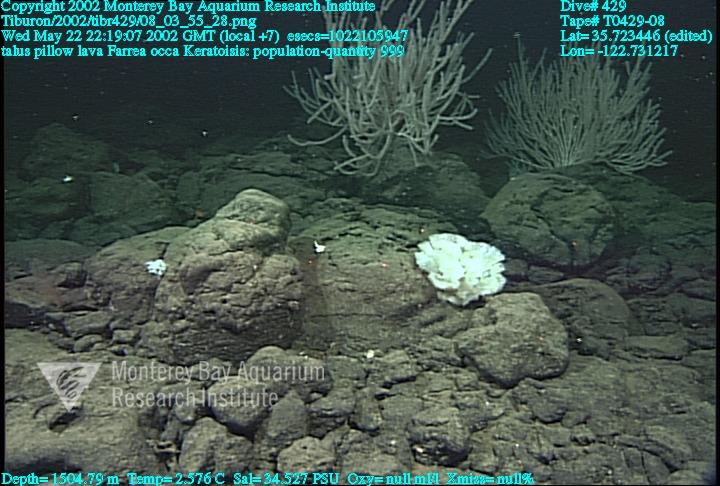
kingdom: Animalia
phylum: Porifera
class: Hexactinellida
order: Sceptrulophora
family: Farreidae
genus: Farrea
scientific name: Farrea occa
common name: Reversed glass sponge
